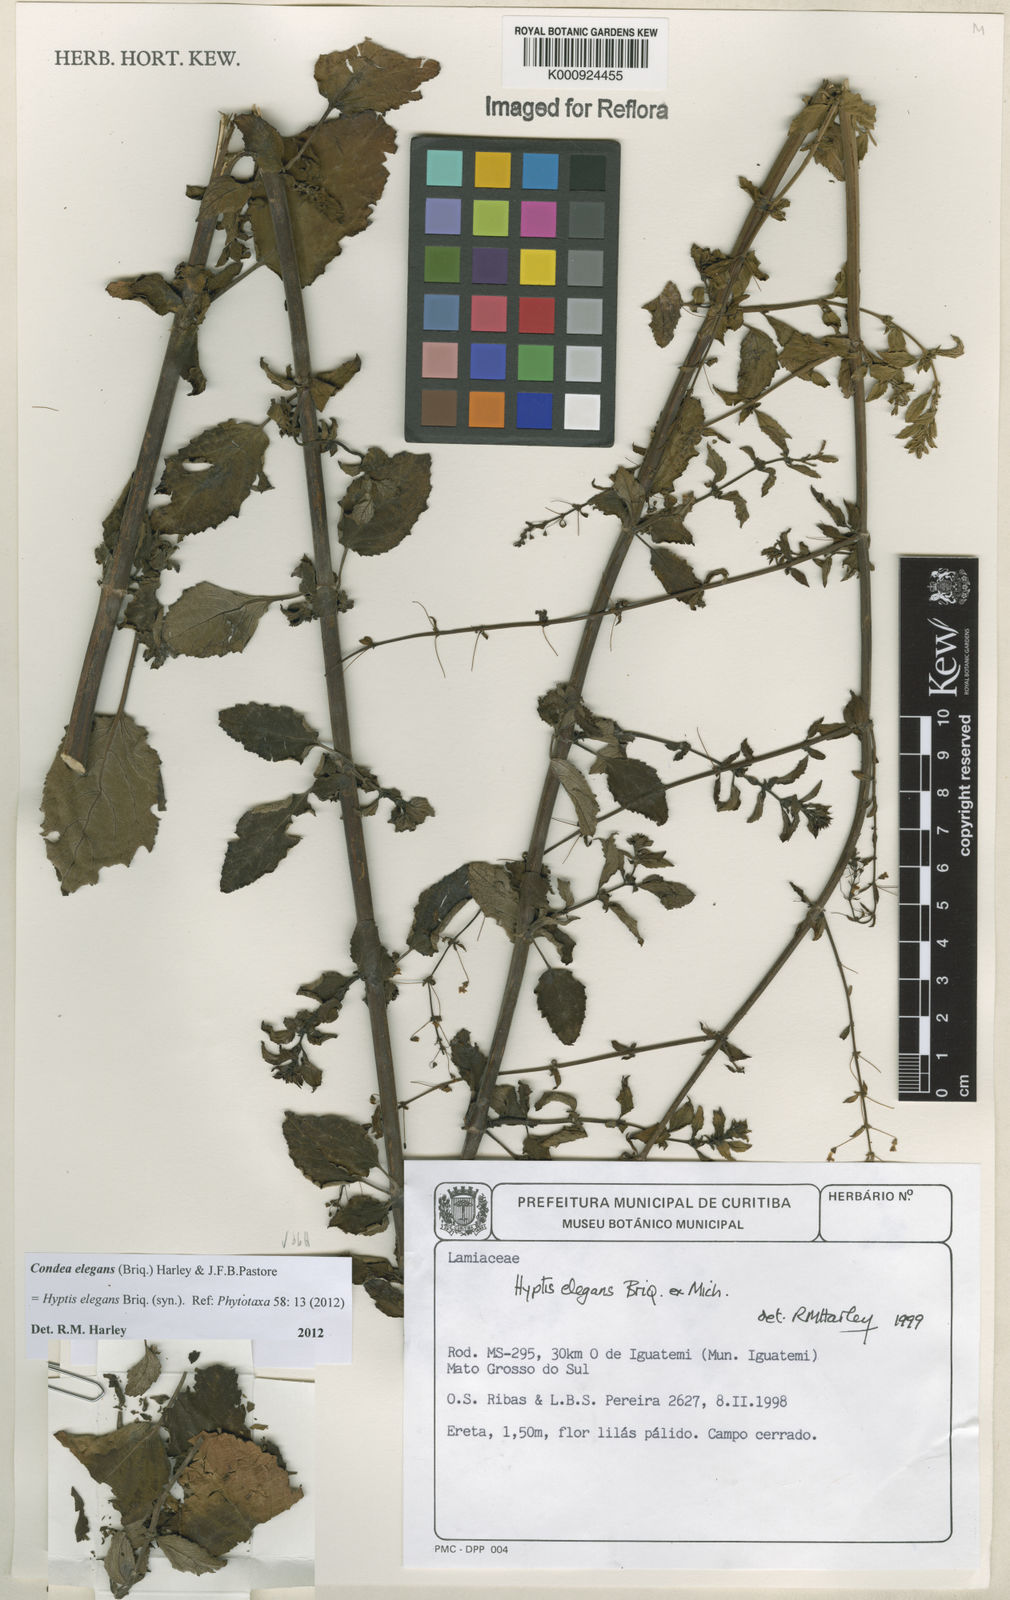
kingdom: Plantae
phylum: Tracheophyta
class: Magnoliopsida
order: Lamiales
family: Lamiaceae
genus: Condea
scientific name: Condea elegans
